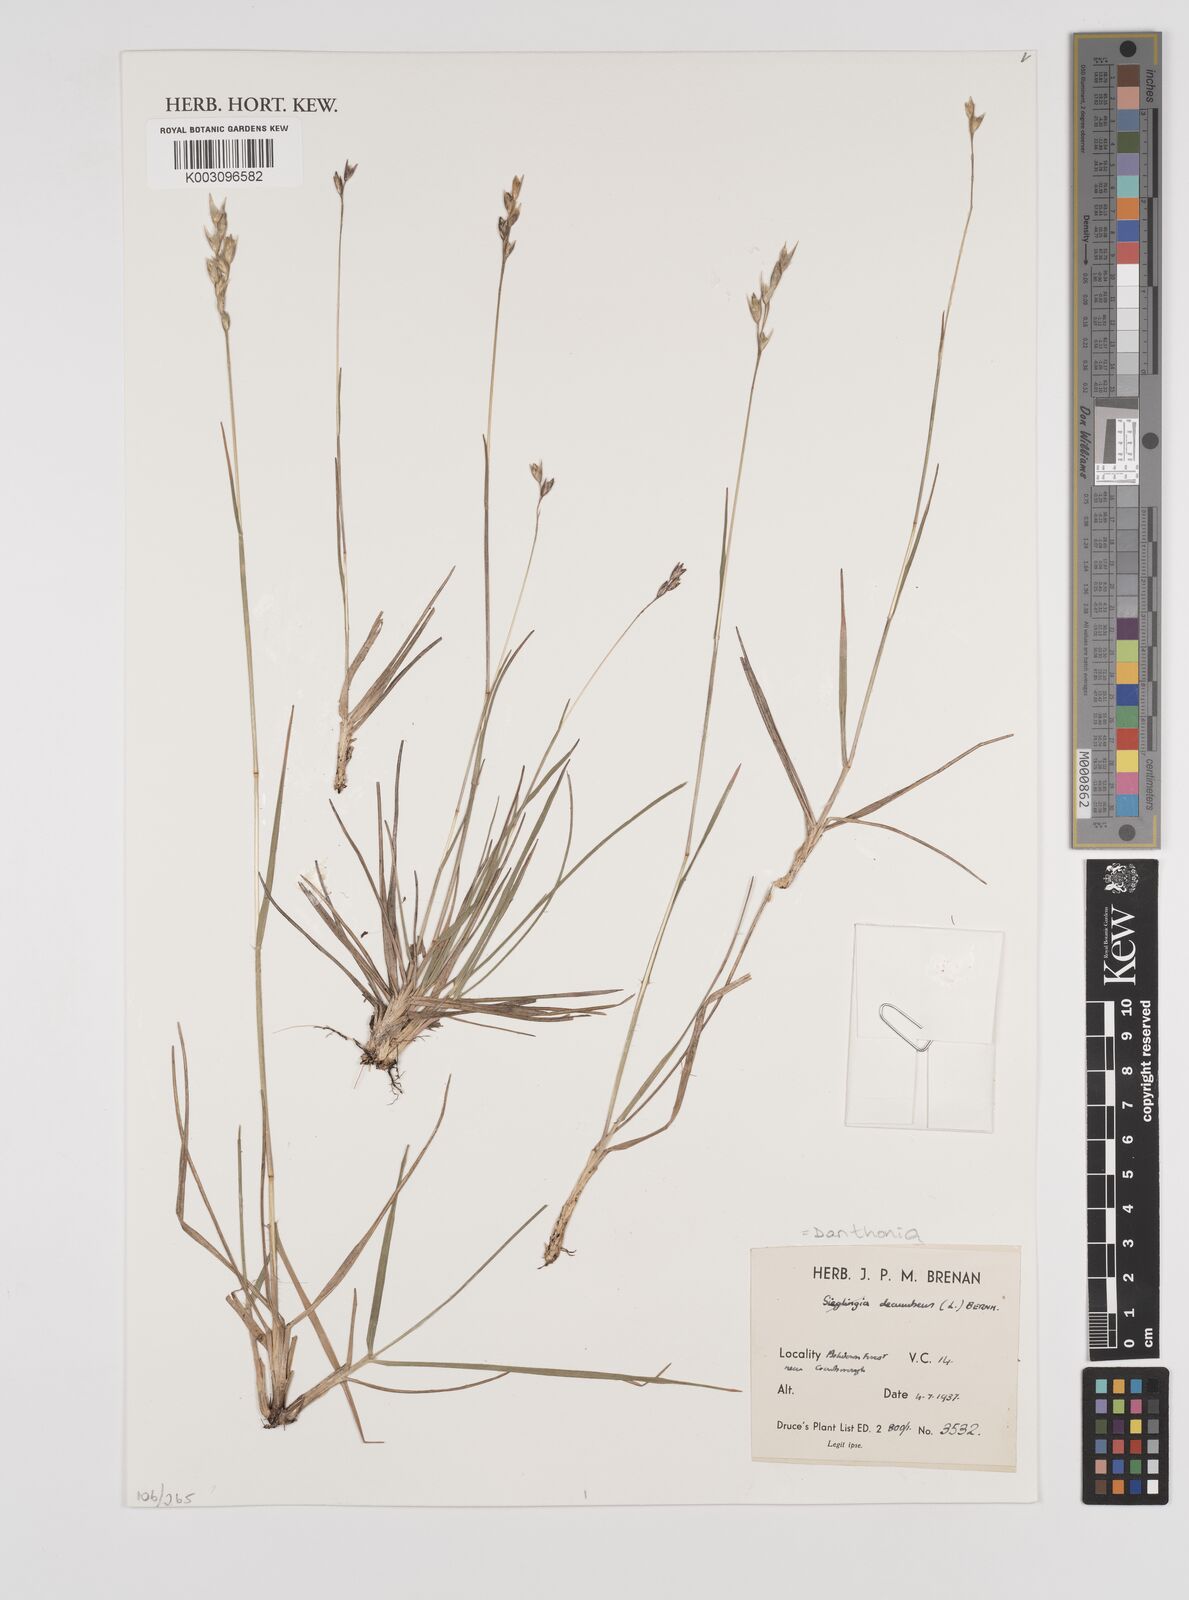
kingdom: Plantae
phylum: Tracheophyta
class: Liliopsida
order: Poales
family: Poaceae
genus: Danthonia
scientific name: Danthonia decumbens
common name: Common heathgrass
